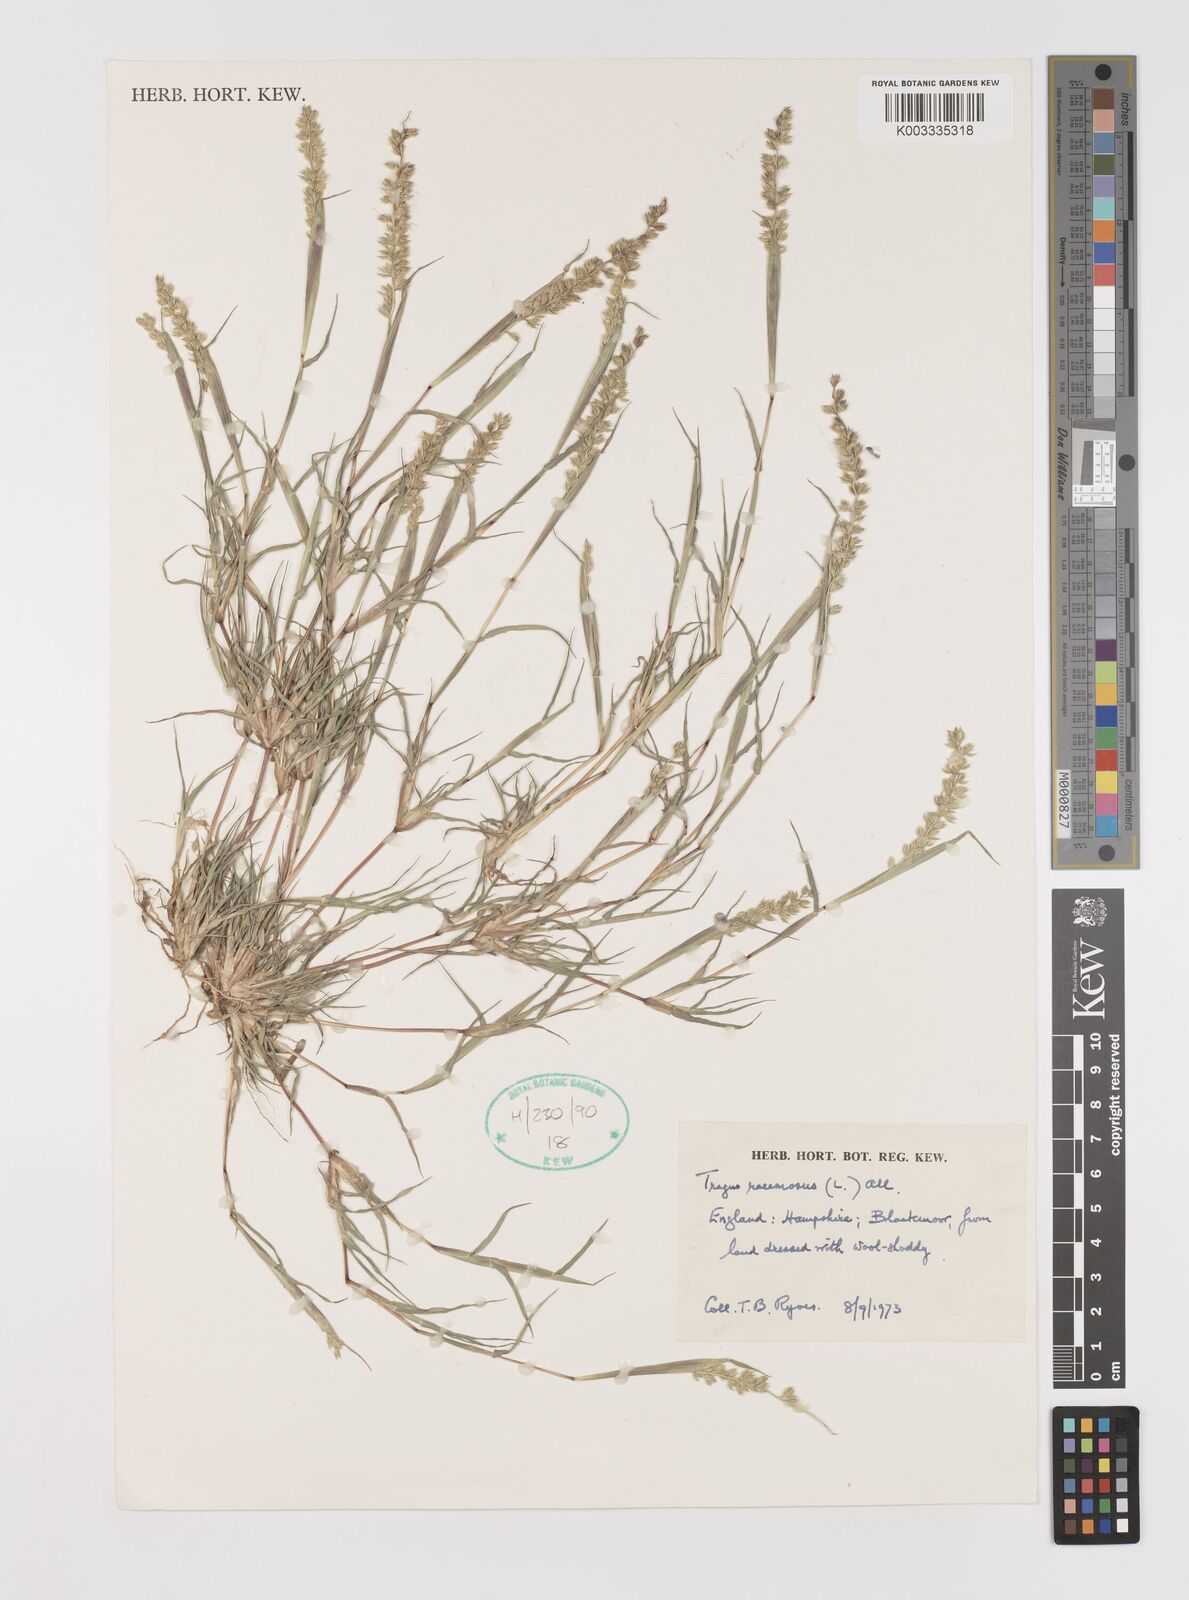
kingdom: Plantae
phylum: Tracheophyta
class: Liliopsida
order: Poales
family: Poaceae
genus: Tragus
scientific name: Tragus racemosus
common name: European bur-grass
